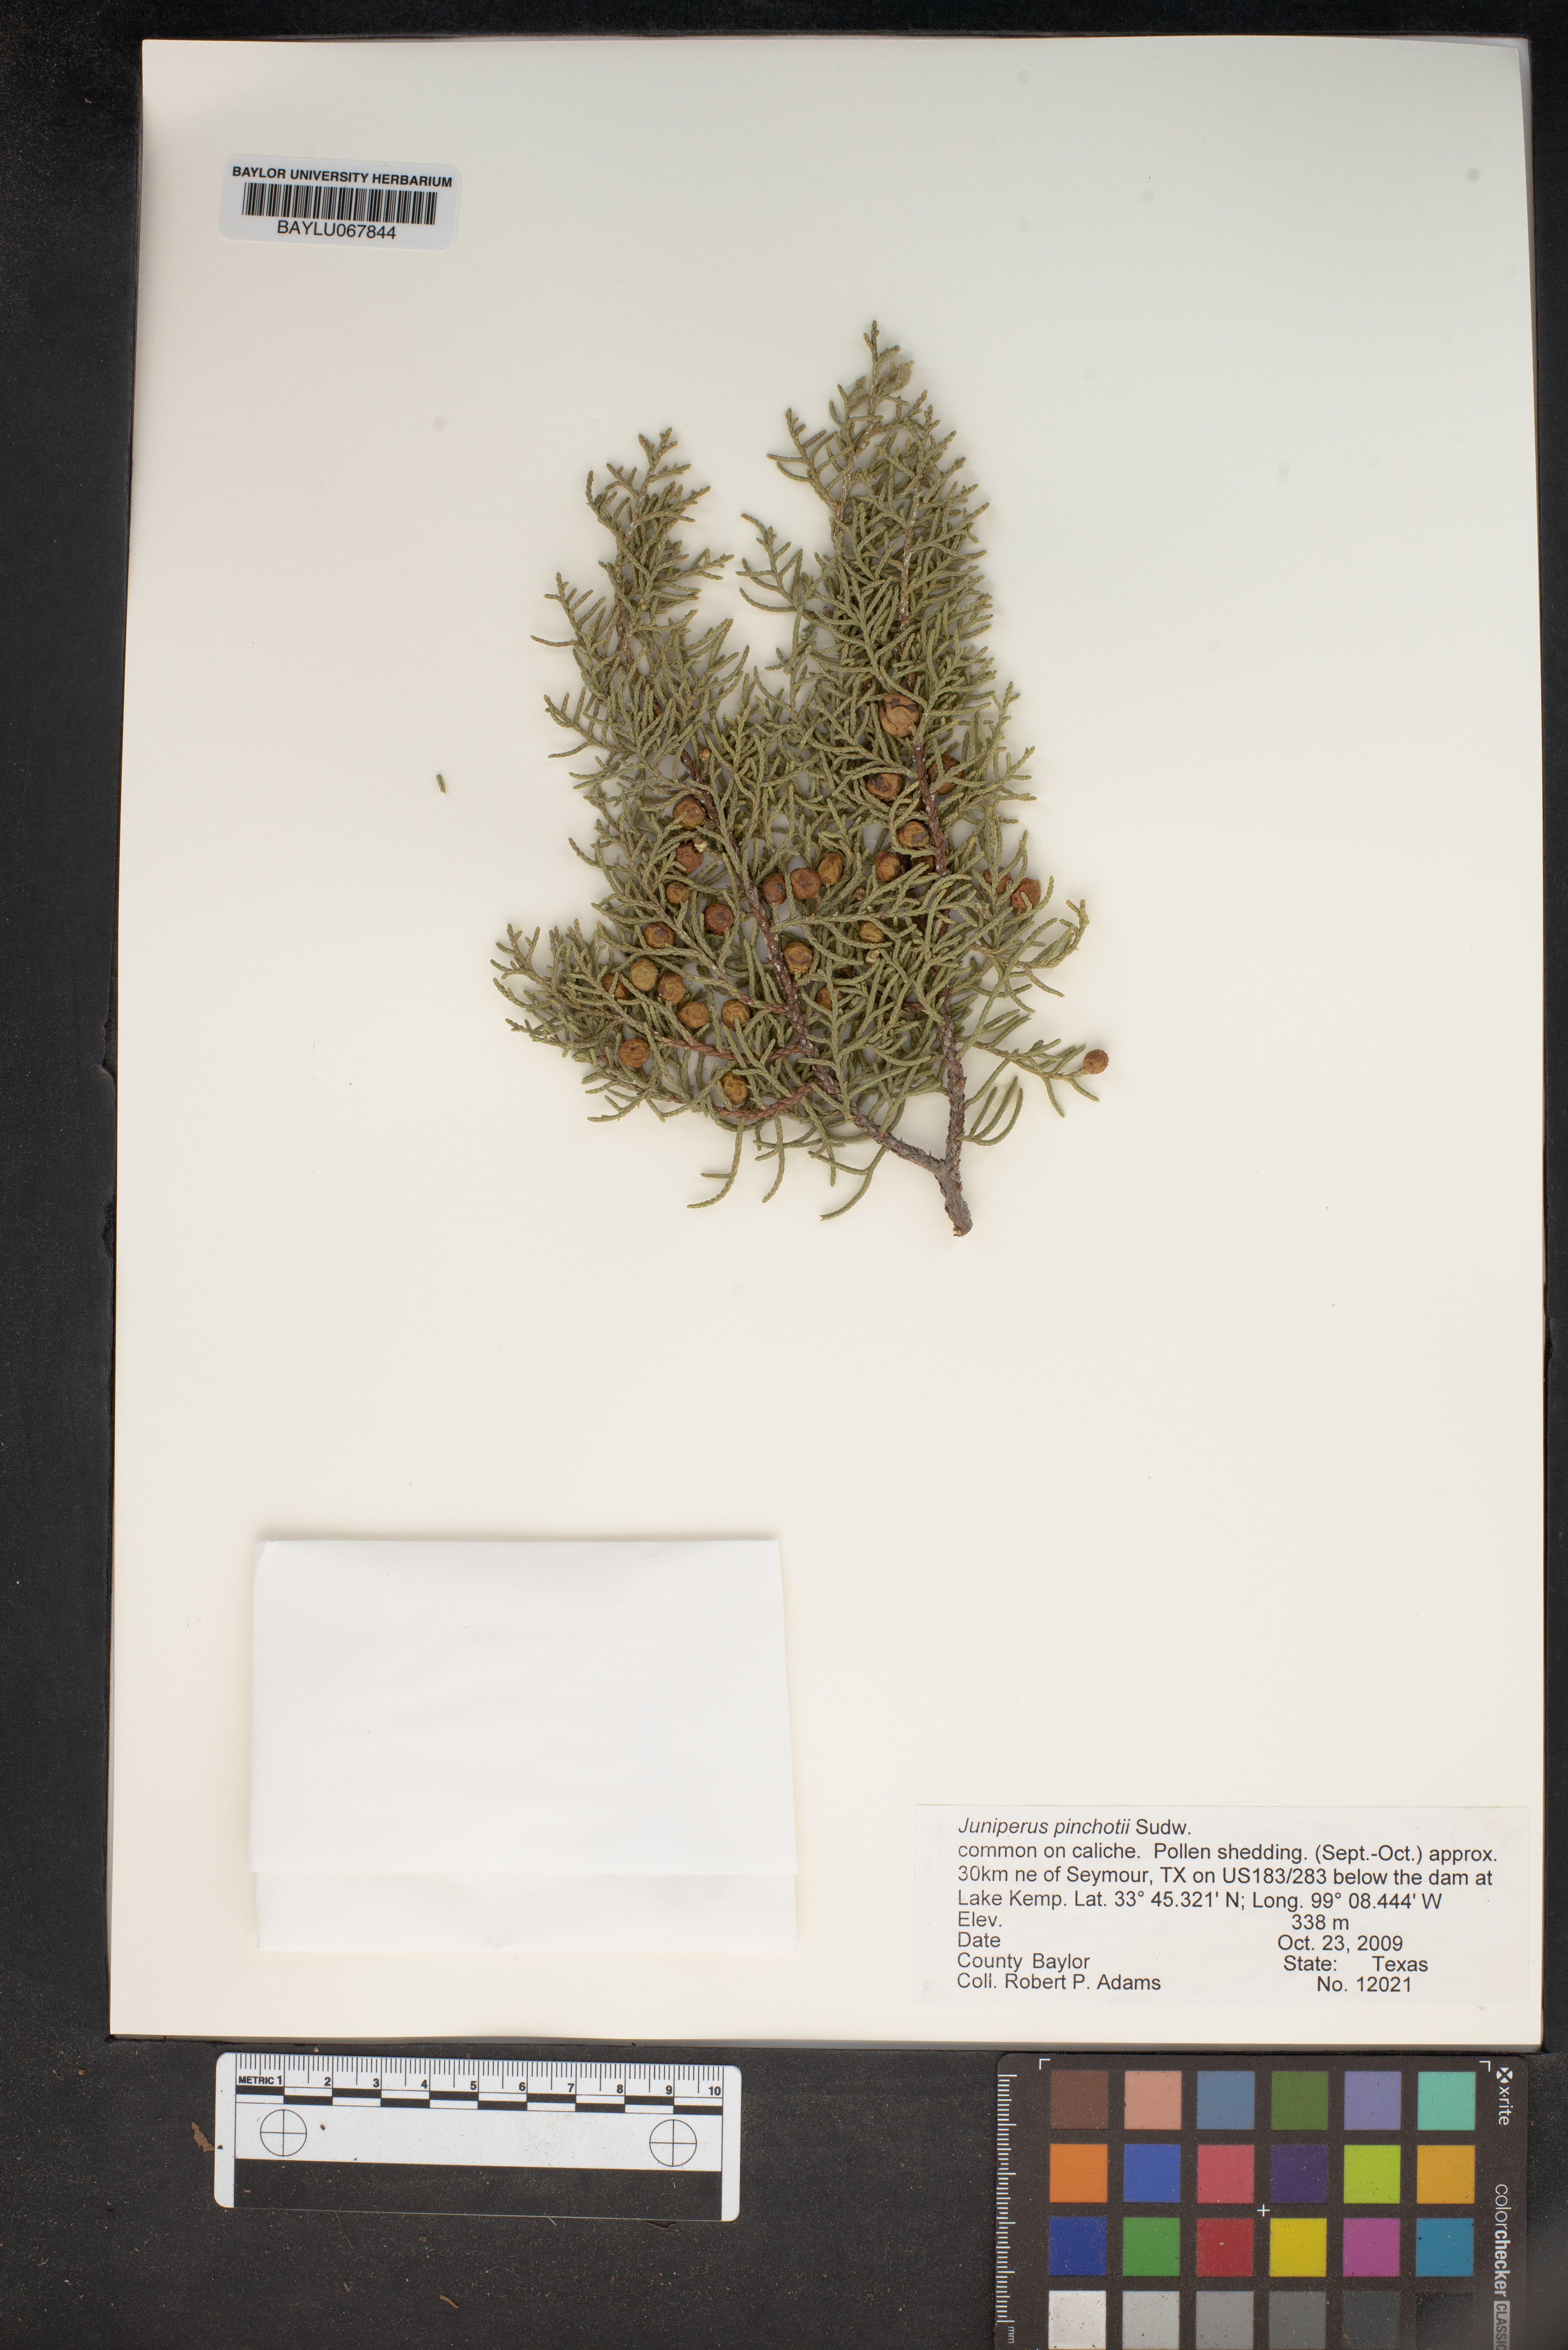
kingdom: Plantae
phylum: Tracheophyta
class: Pinopsida
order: Pinales
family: Cupressaceae
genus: Juniperus
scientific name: Juniperus pinchotii
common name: Pinchot juniper
